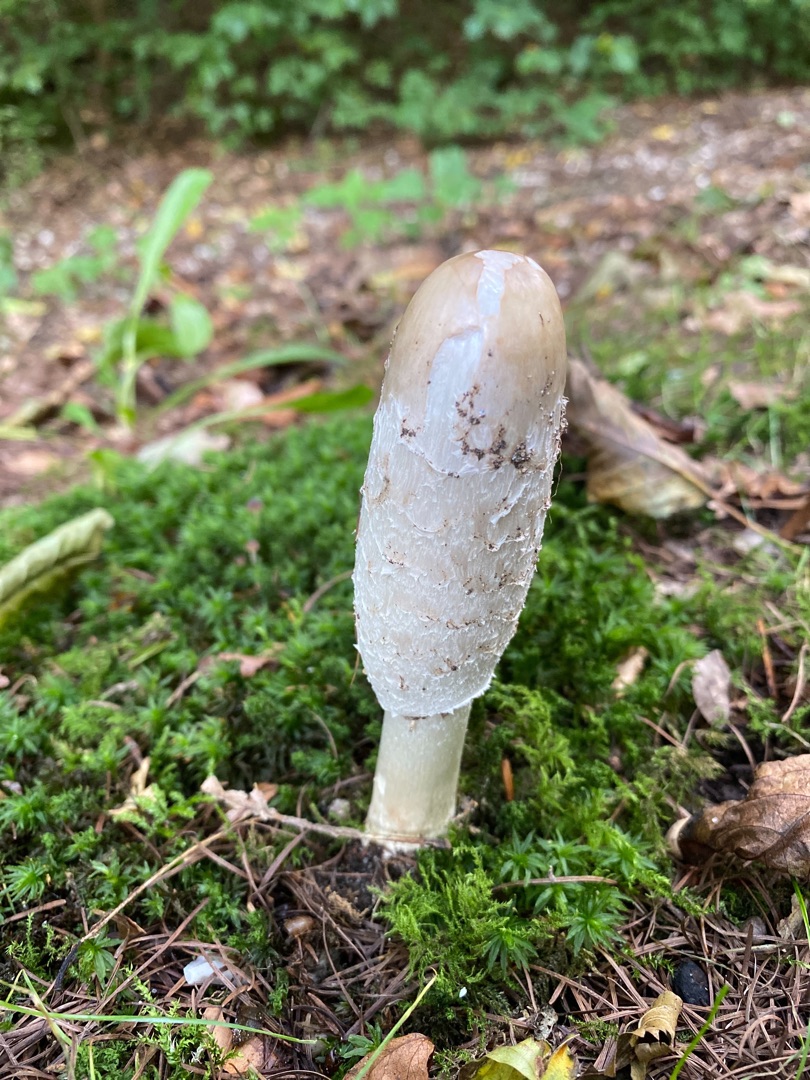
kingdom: Fungi
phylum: Basidiomycota
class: Agaricomycetes
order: Agaricales
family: Agaricaceae
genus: Coprinus
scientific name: Coprinus comatus
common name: Stor parykhat
